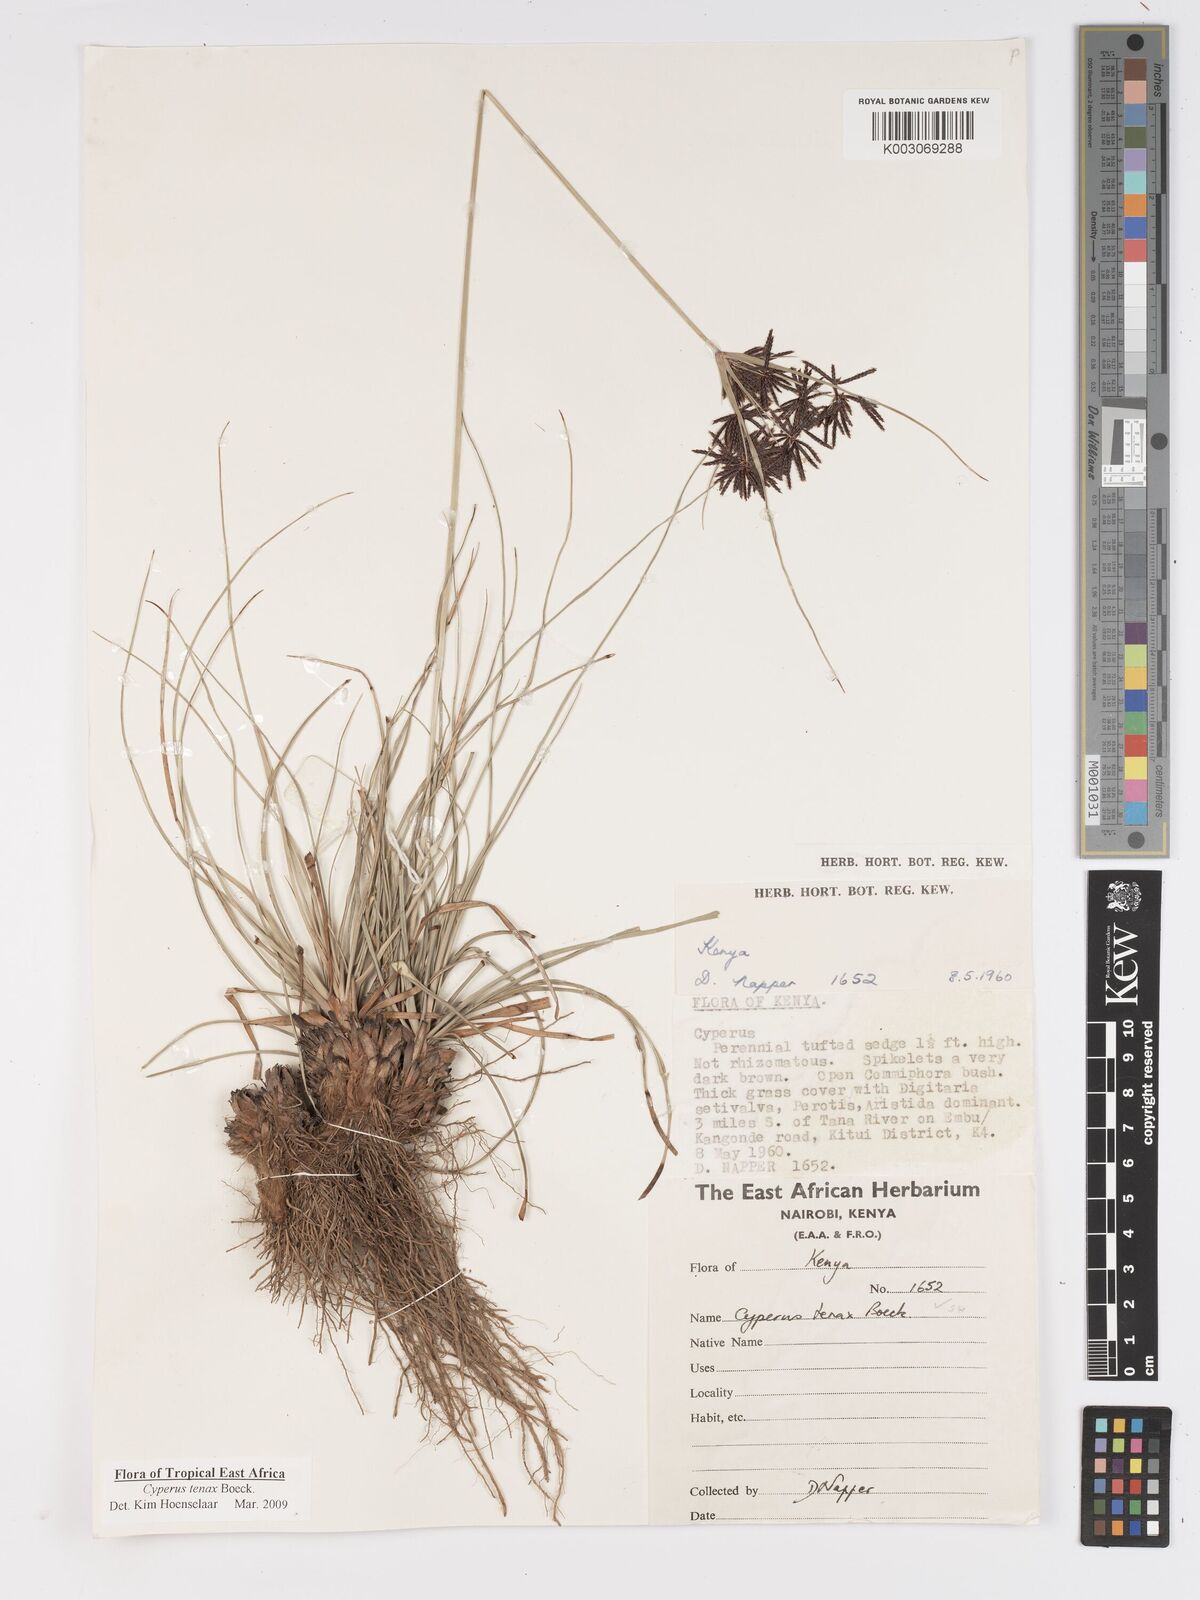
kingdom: Plantae
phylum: Tracheophyta
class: Liliopsida
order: Poales
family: Cyperaceae
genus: Cyperus
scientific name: Cyperus tenax
